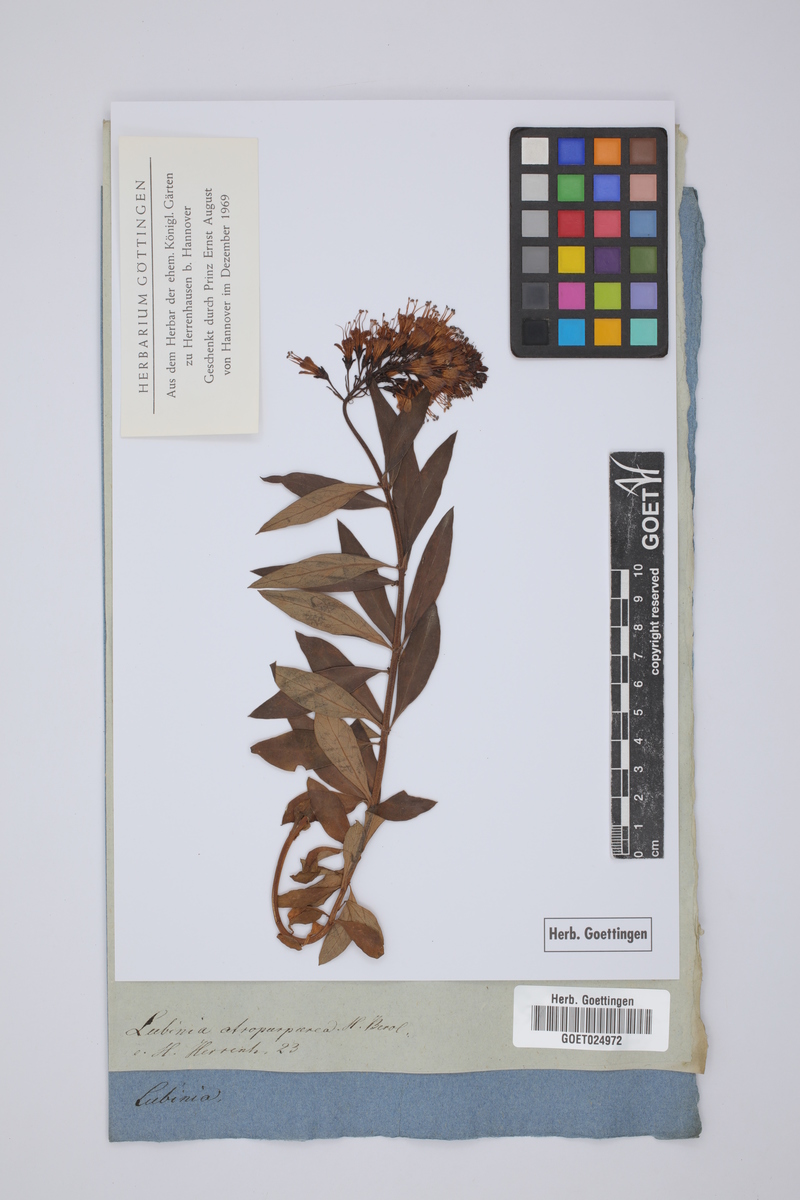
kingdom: Plantae
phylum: Tracheophyta
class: Magnoliopsida
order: Ericales
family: Primulaceae
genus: Lysimachia
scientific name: Lysimachia nutans
